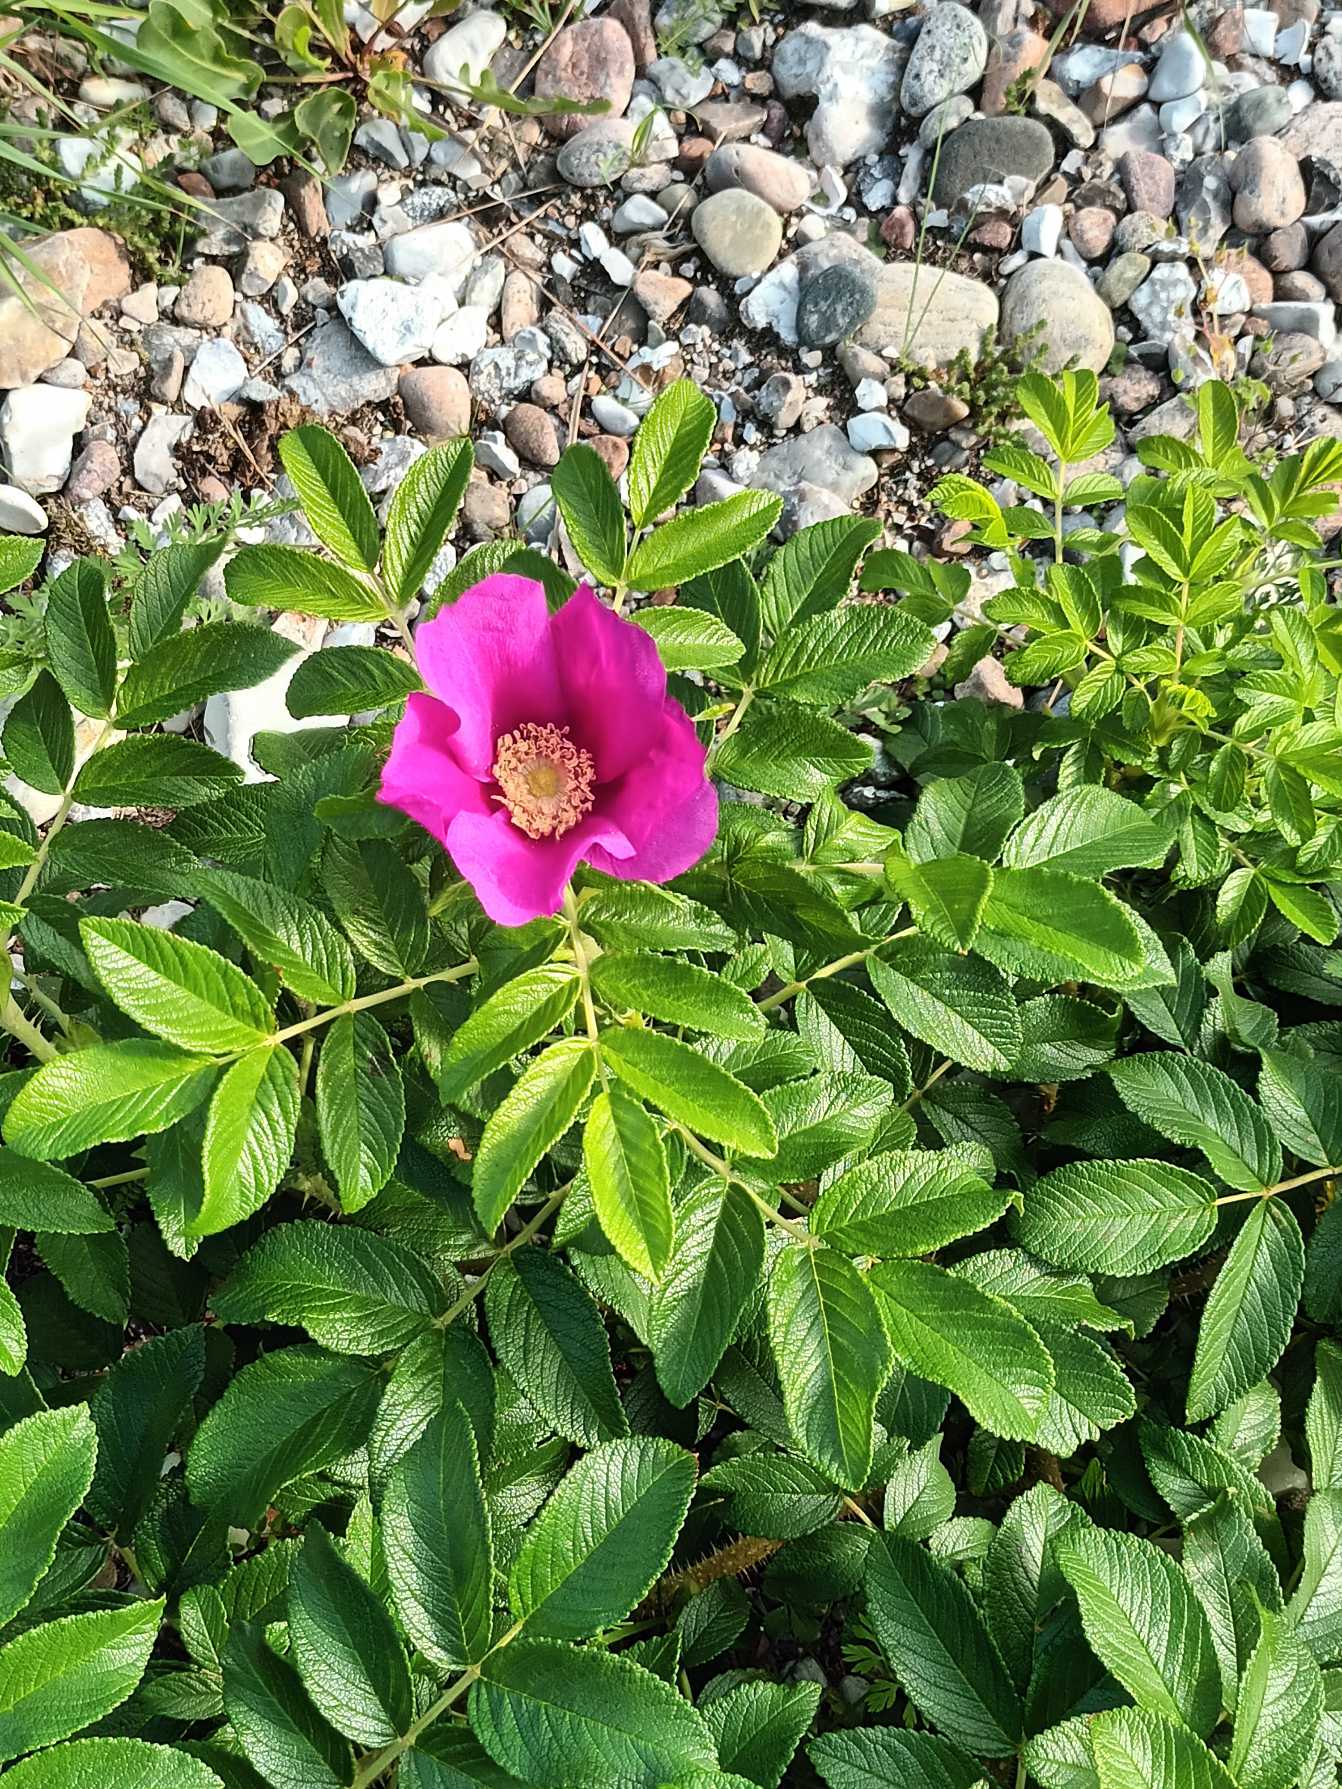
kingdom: Plantae
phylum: Tracheophyta
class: Magnoliopsida
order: Rosales
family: Rosaceae
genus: Rosa
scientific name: Rosa rugosa
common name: Rynket rose
